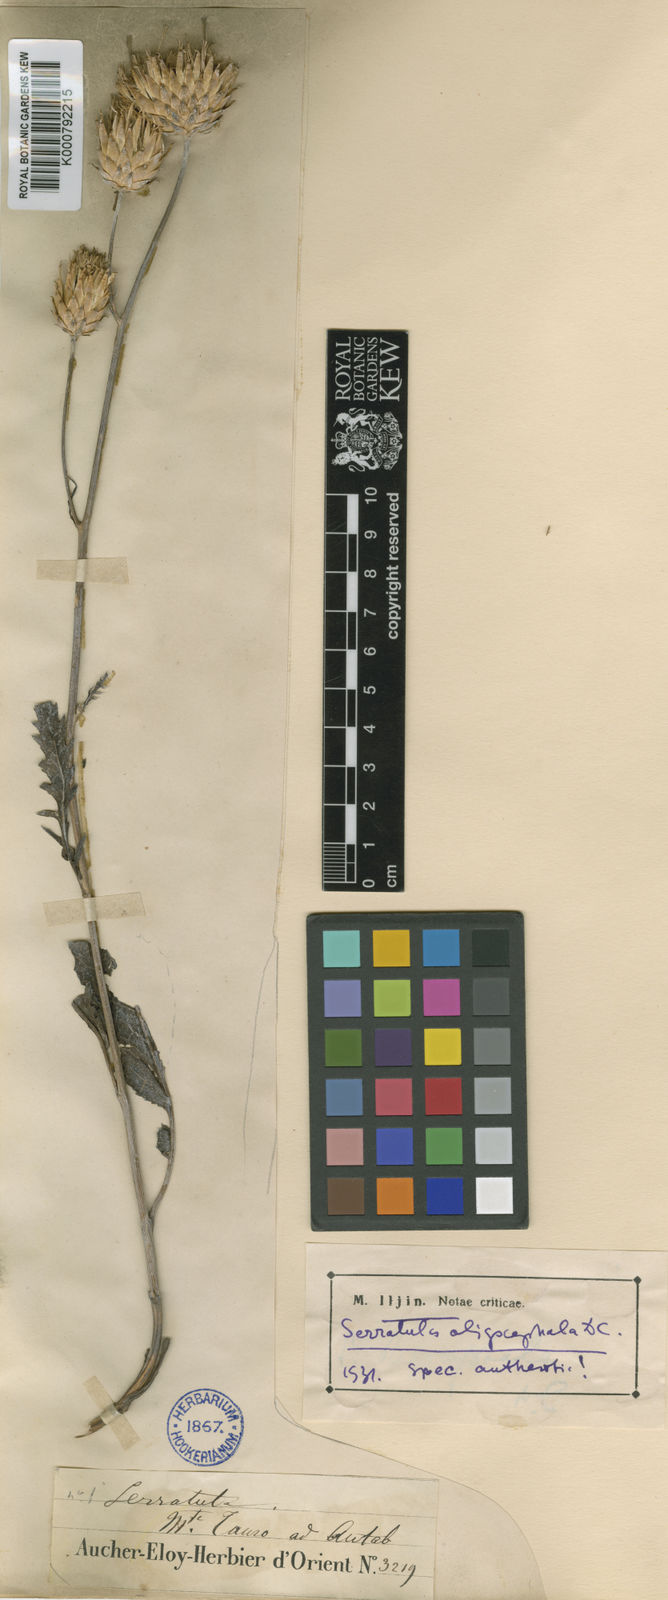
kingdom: Plantae
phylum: Tracheophyta
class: Magnoliopsida
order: Asterales
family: Asteraceae
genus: Klasea
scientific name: Klasea oligocephala
